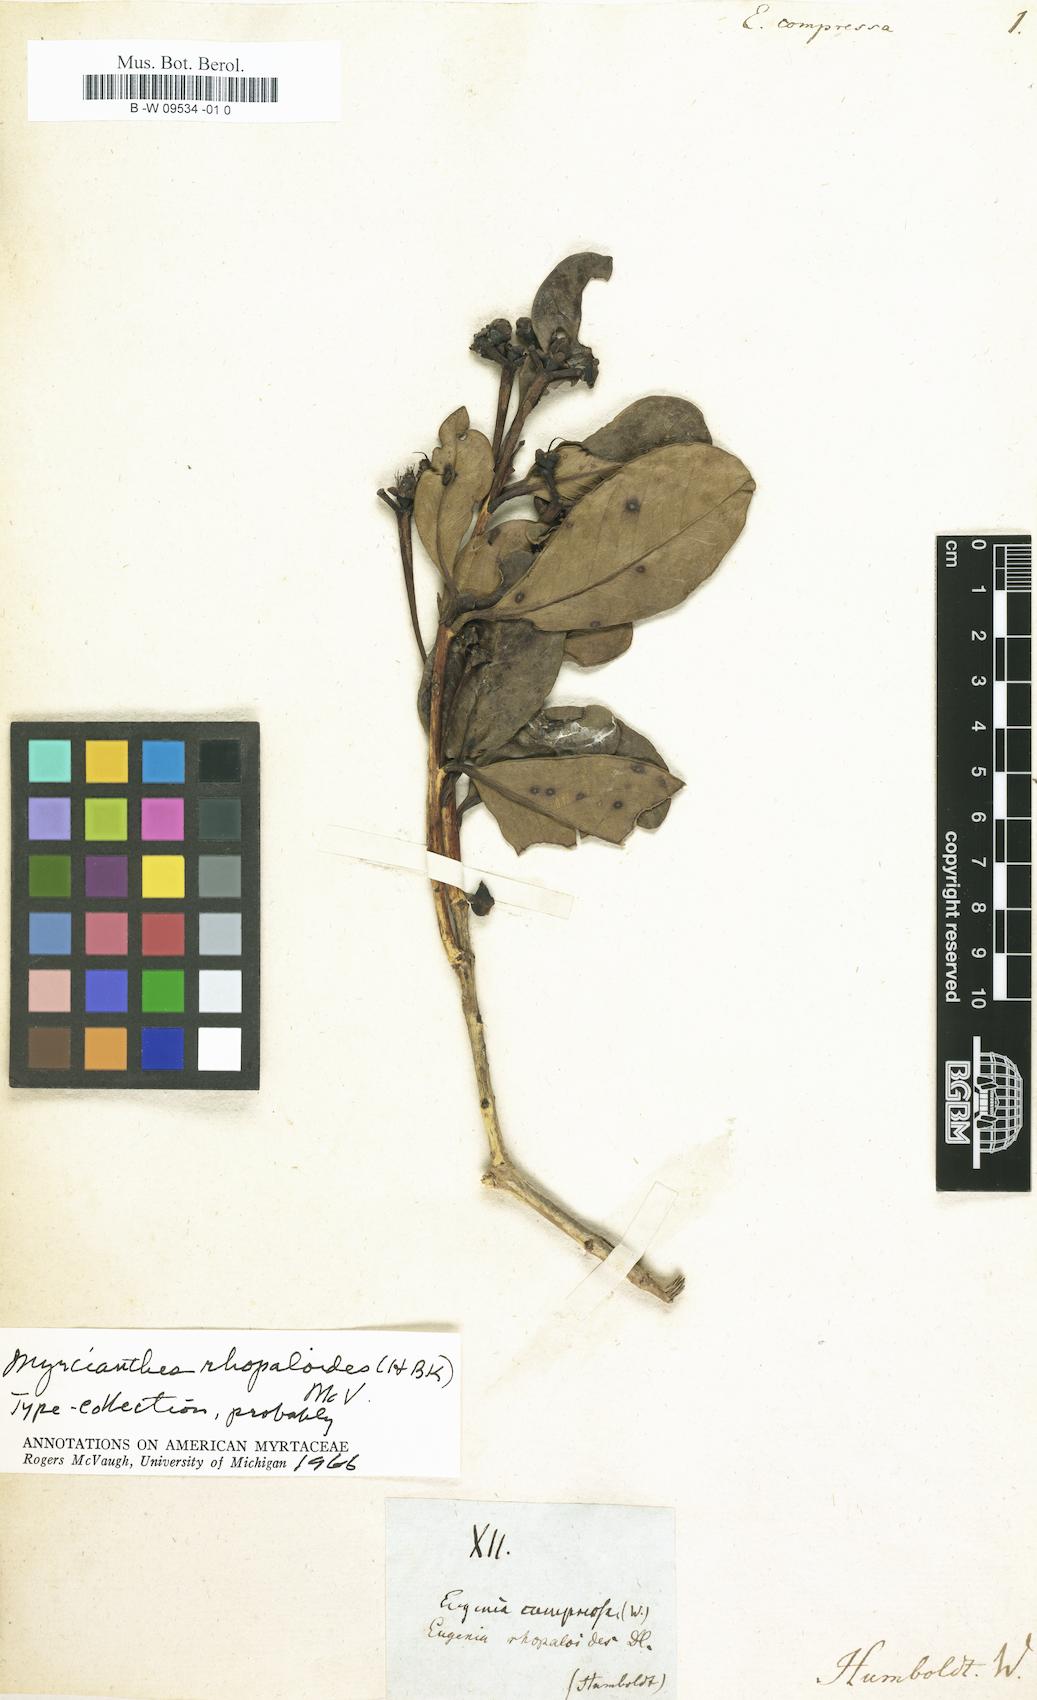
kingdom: Plantae
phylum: Tracheophyta
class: Magnoliopsida
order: Myrtales
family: Myrtaceae
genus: Myrcianthes
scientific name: Myrcianthes fragrans
